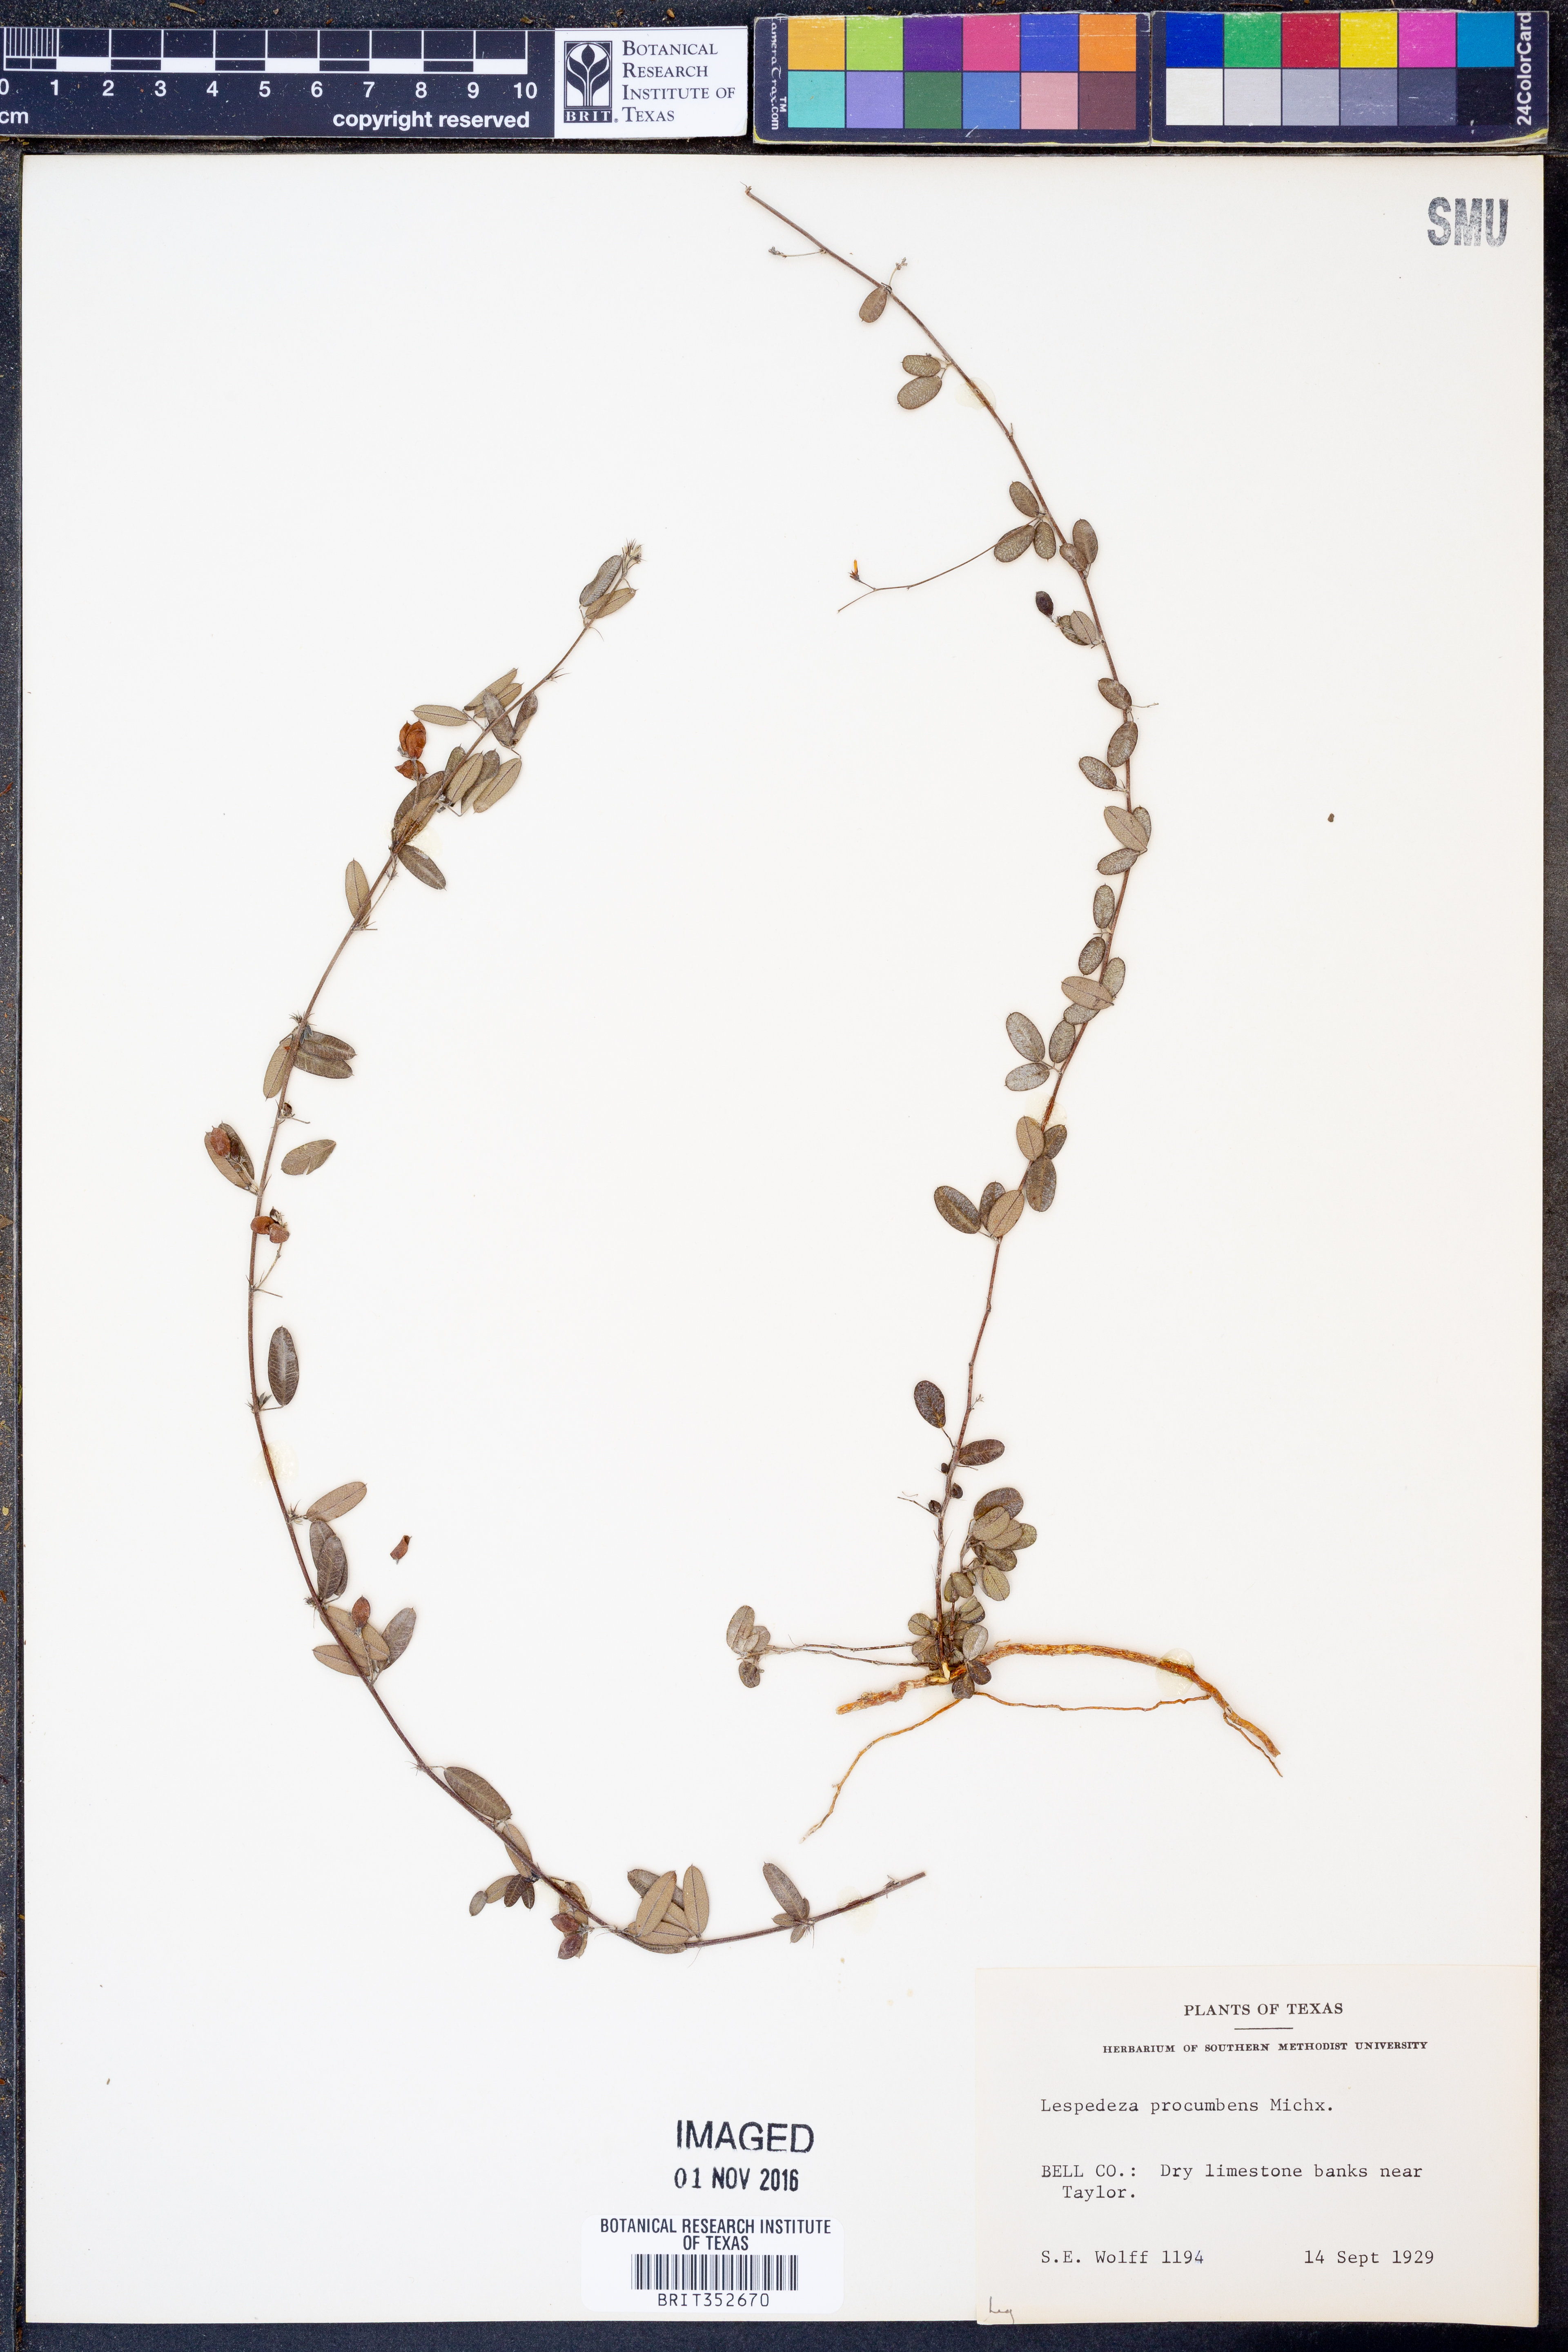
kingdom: Plantae
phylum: Tracheophyta
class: Magnoliopsida
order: Fabales
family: Fabaceae
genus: Lespedeza
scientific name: Lespedeza procumbens
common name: Downy trailing bush-clover
